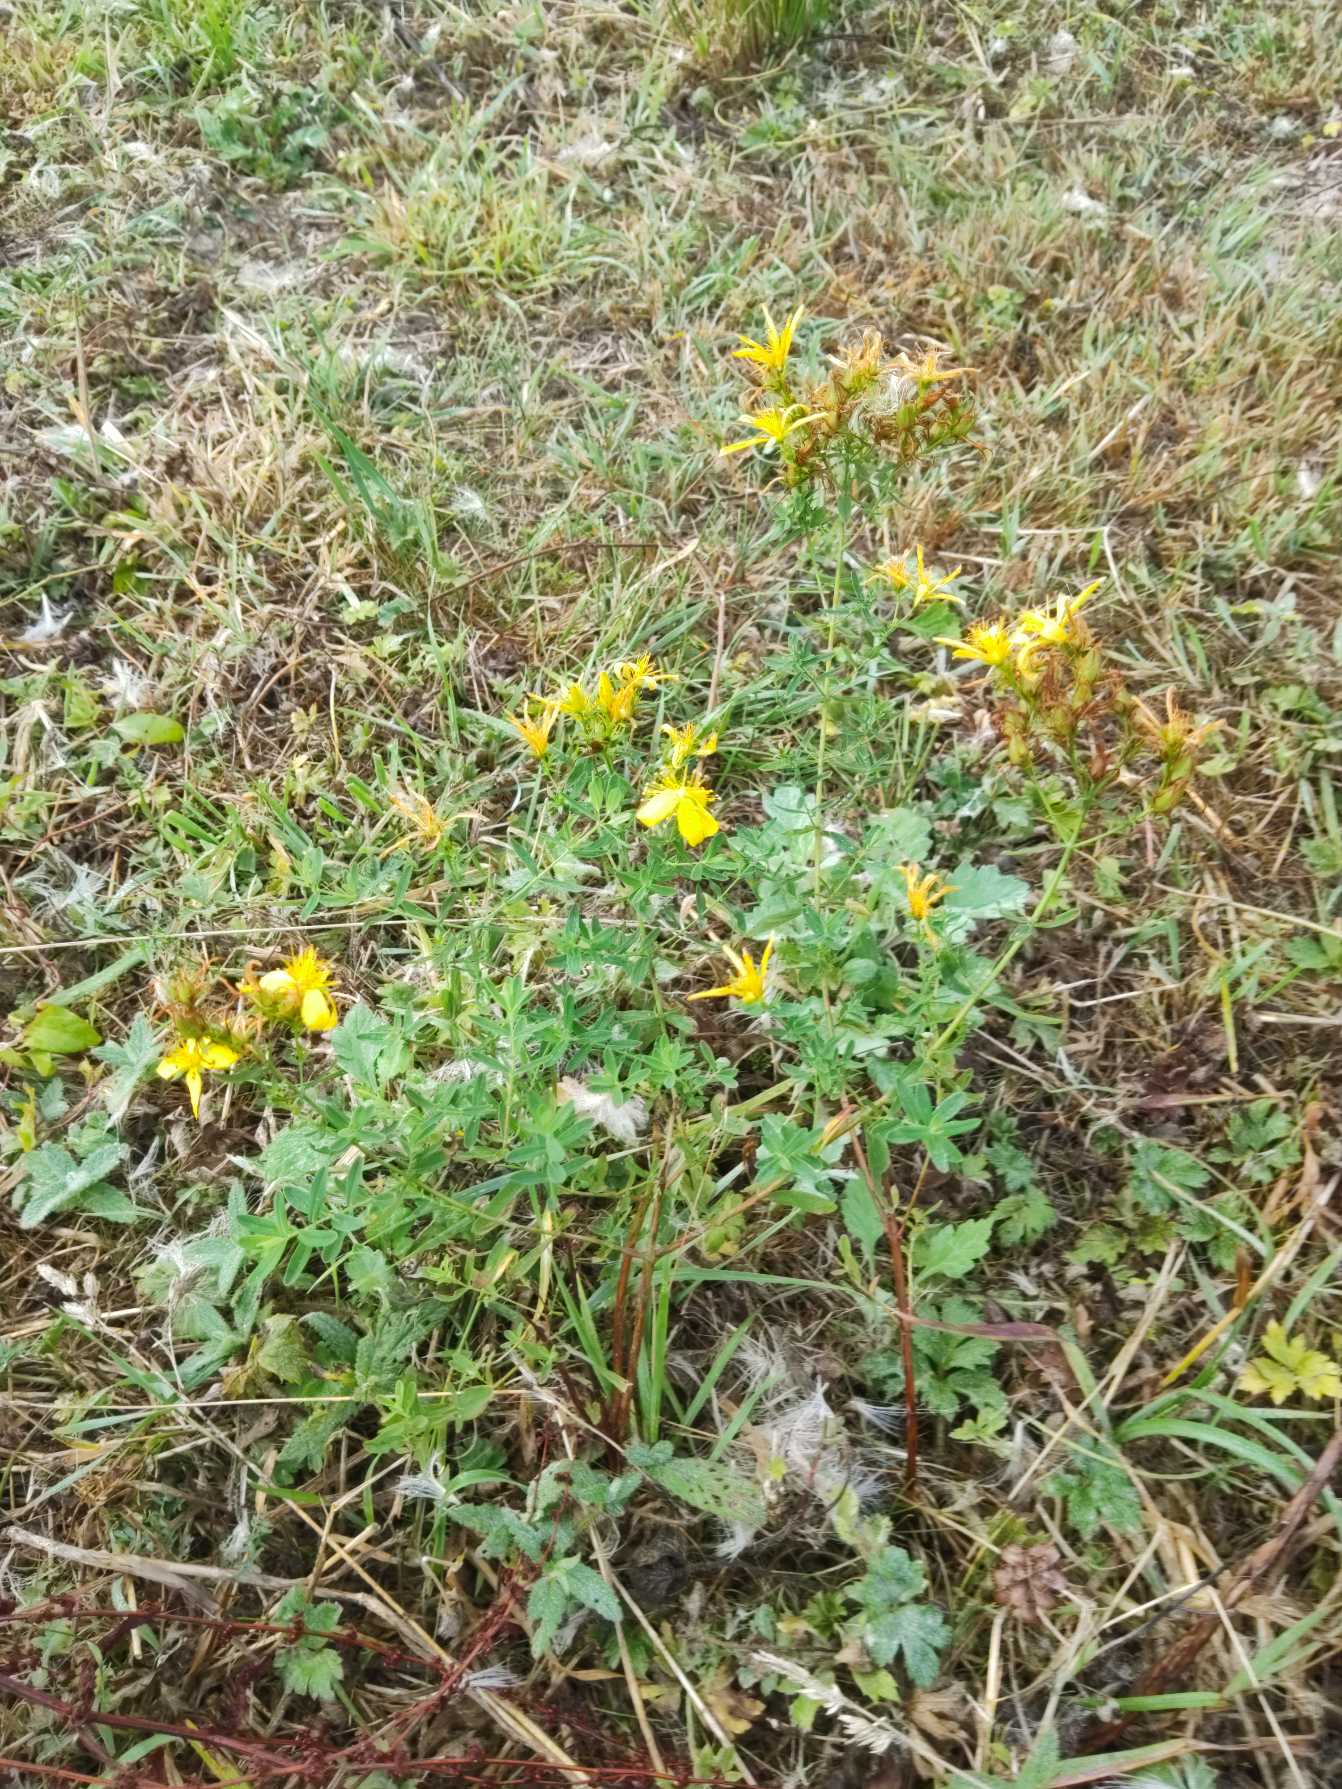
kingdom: Plantae
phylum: Tracheophyta
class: Magnoliopsida
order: Malpighiales
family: Hypericaceae
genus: Hypericum
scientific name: Hypericum perforatum
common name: Prikbladet perikon
